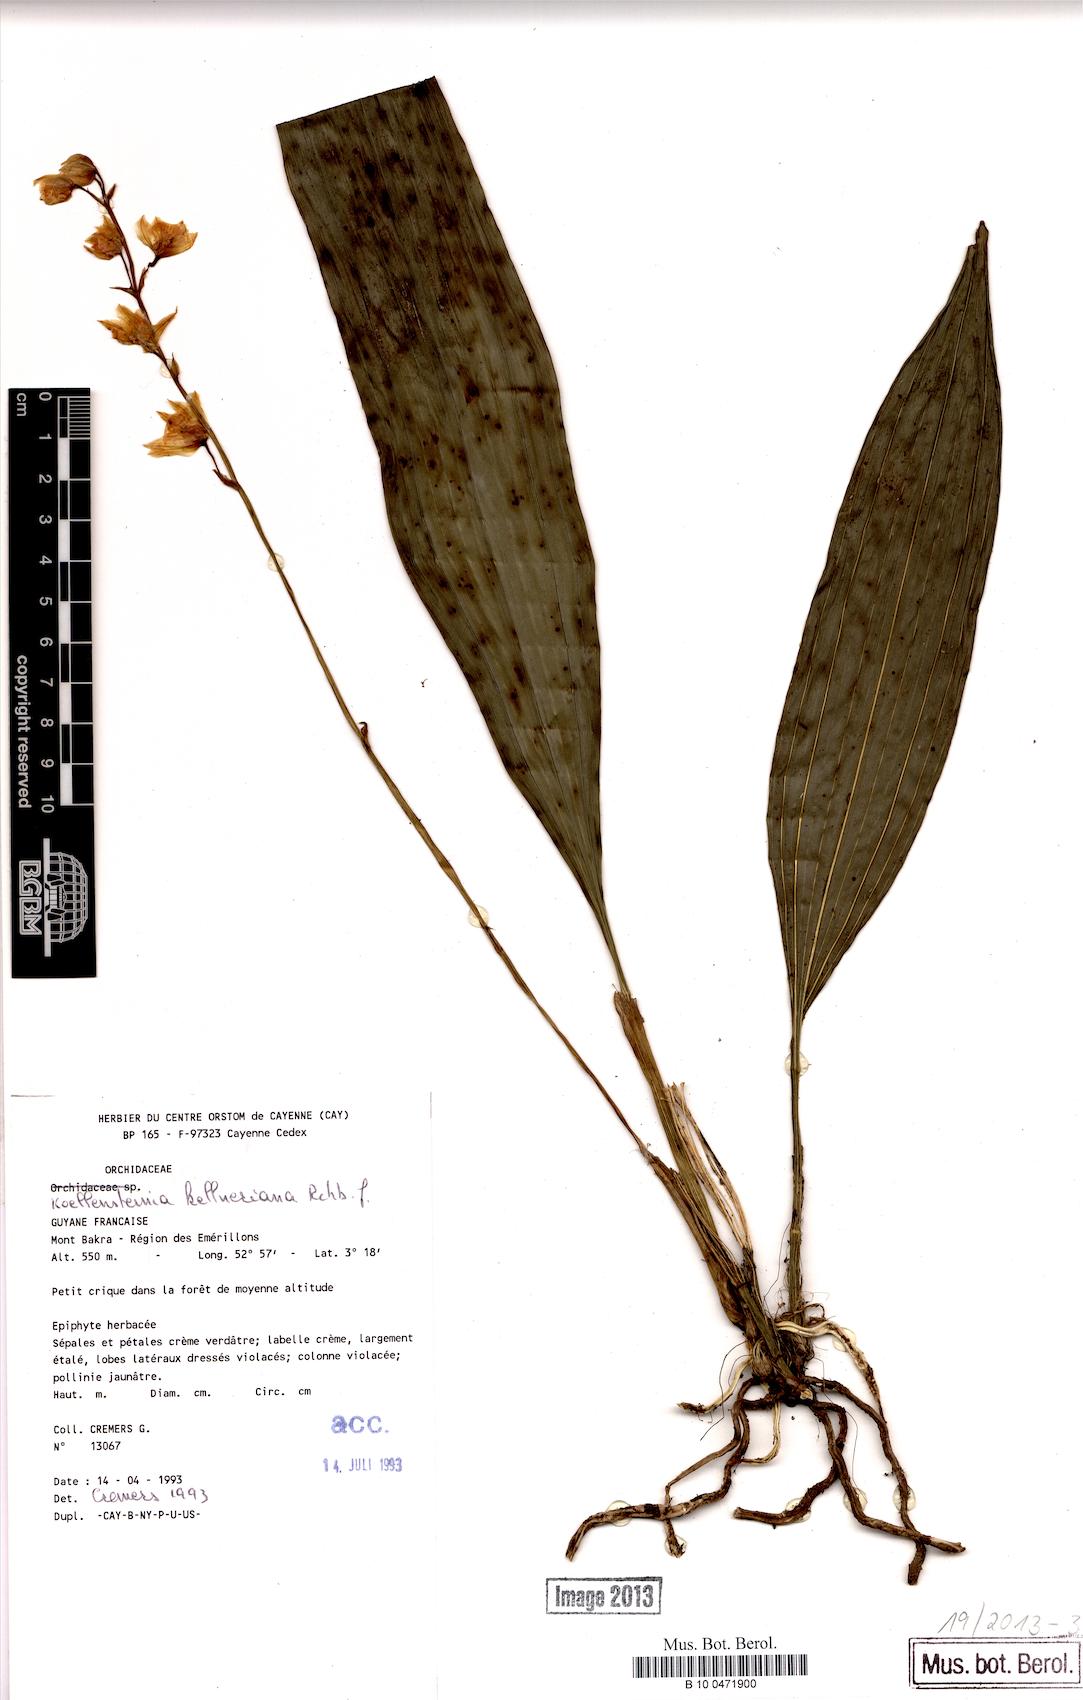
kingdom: Plantae
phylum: Tracheophyta
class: Liliopsida
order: Asparagales
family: Orchidaceae
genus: Koellensteinia
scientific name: Koellensteinia kellneriana
